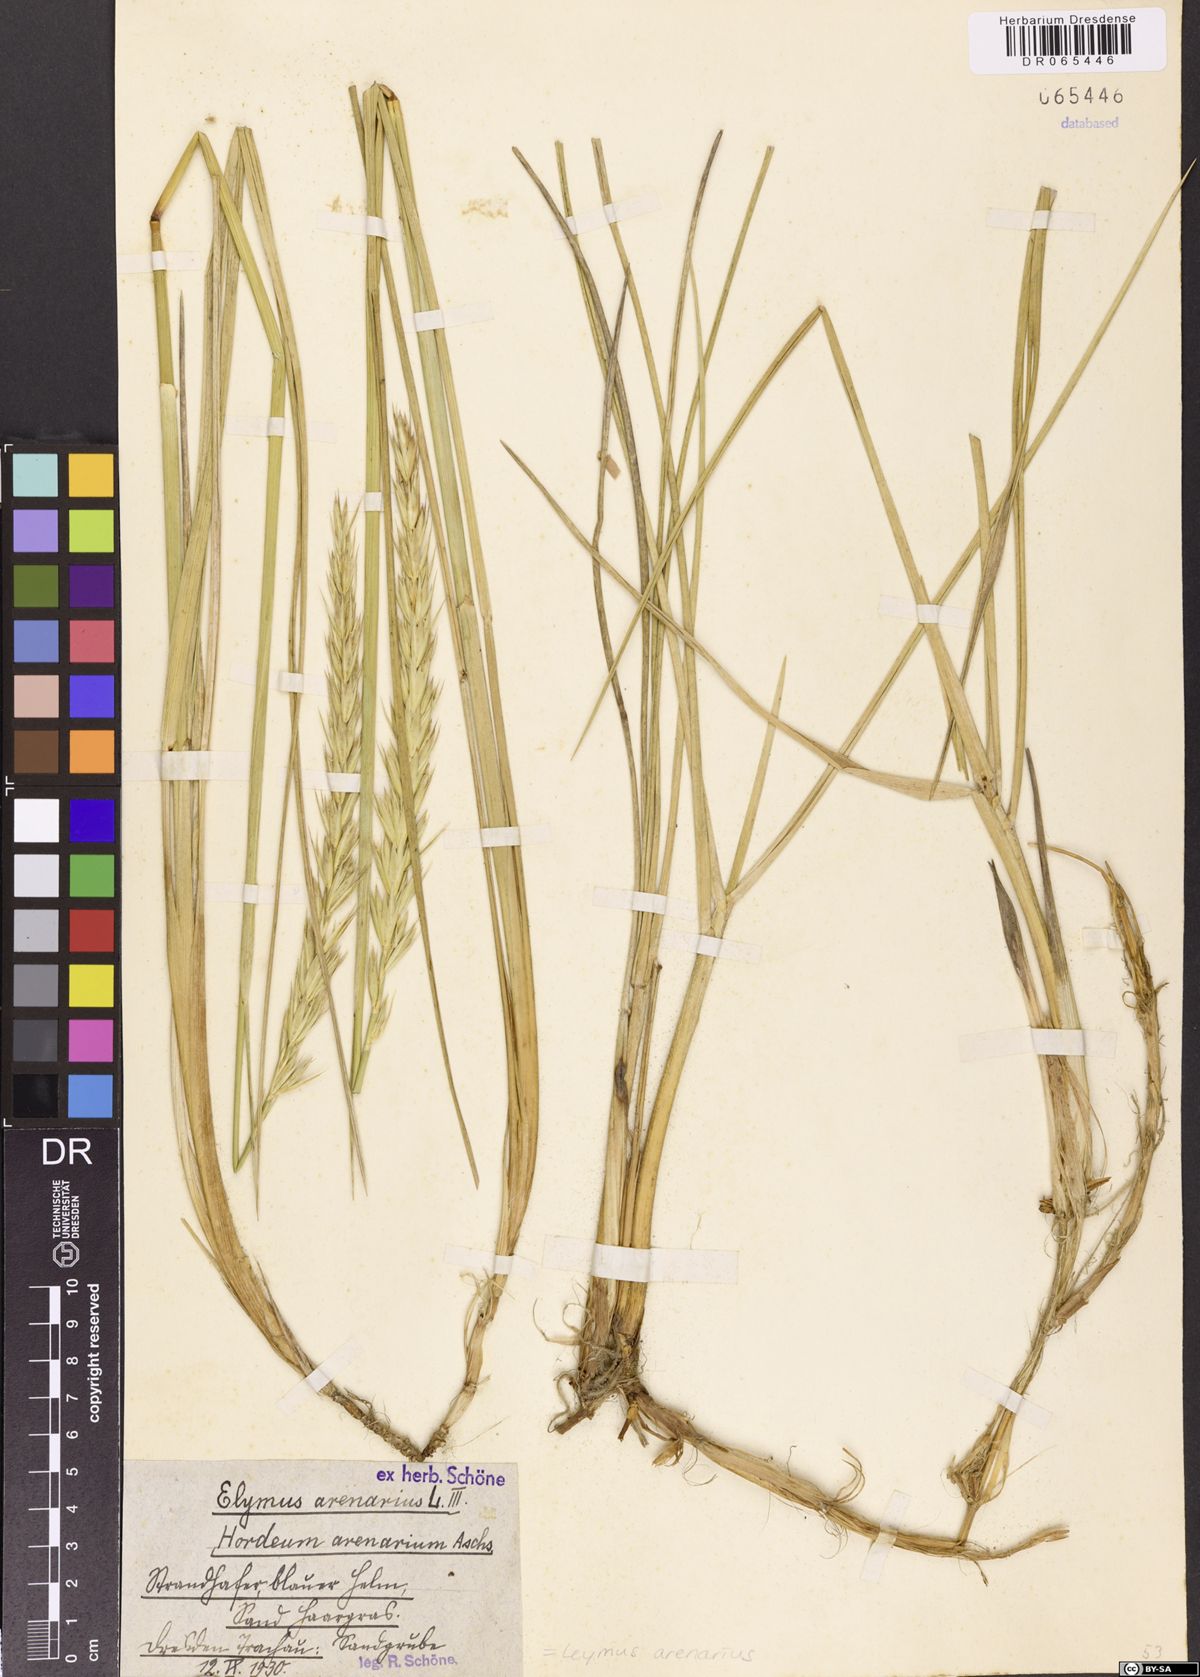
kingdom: Plantae
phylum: Tracheophyta
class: Liliopsida
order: Poales
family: Poaceae
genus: Leymus
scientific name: Leymus arenarius
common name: Lyme-grass
